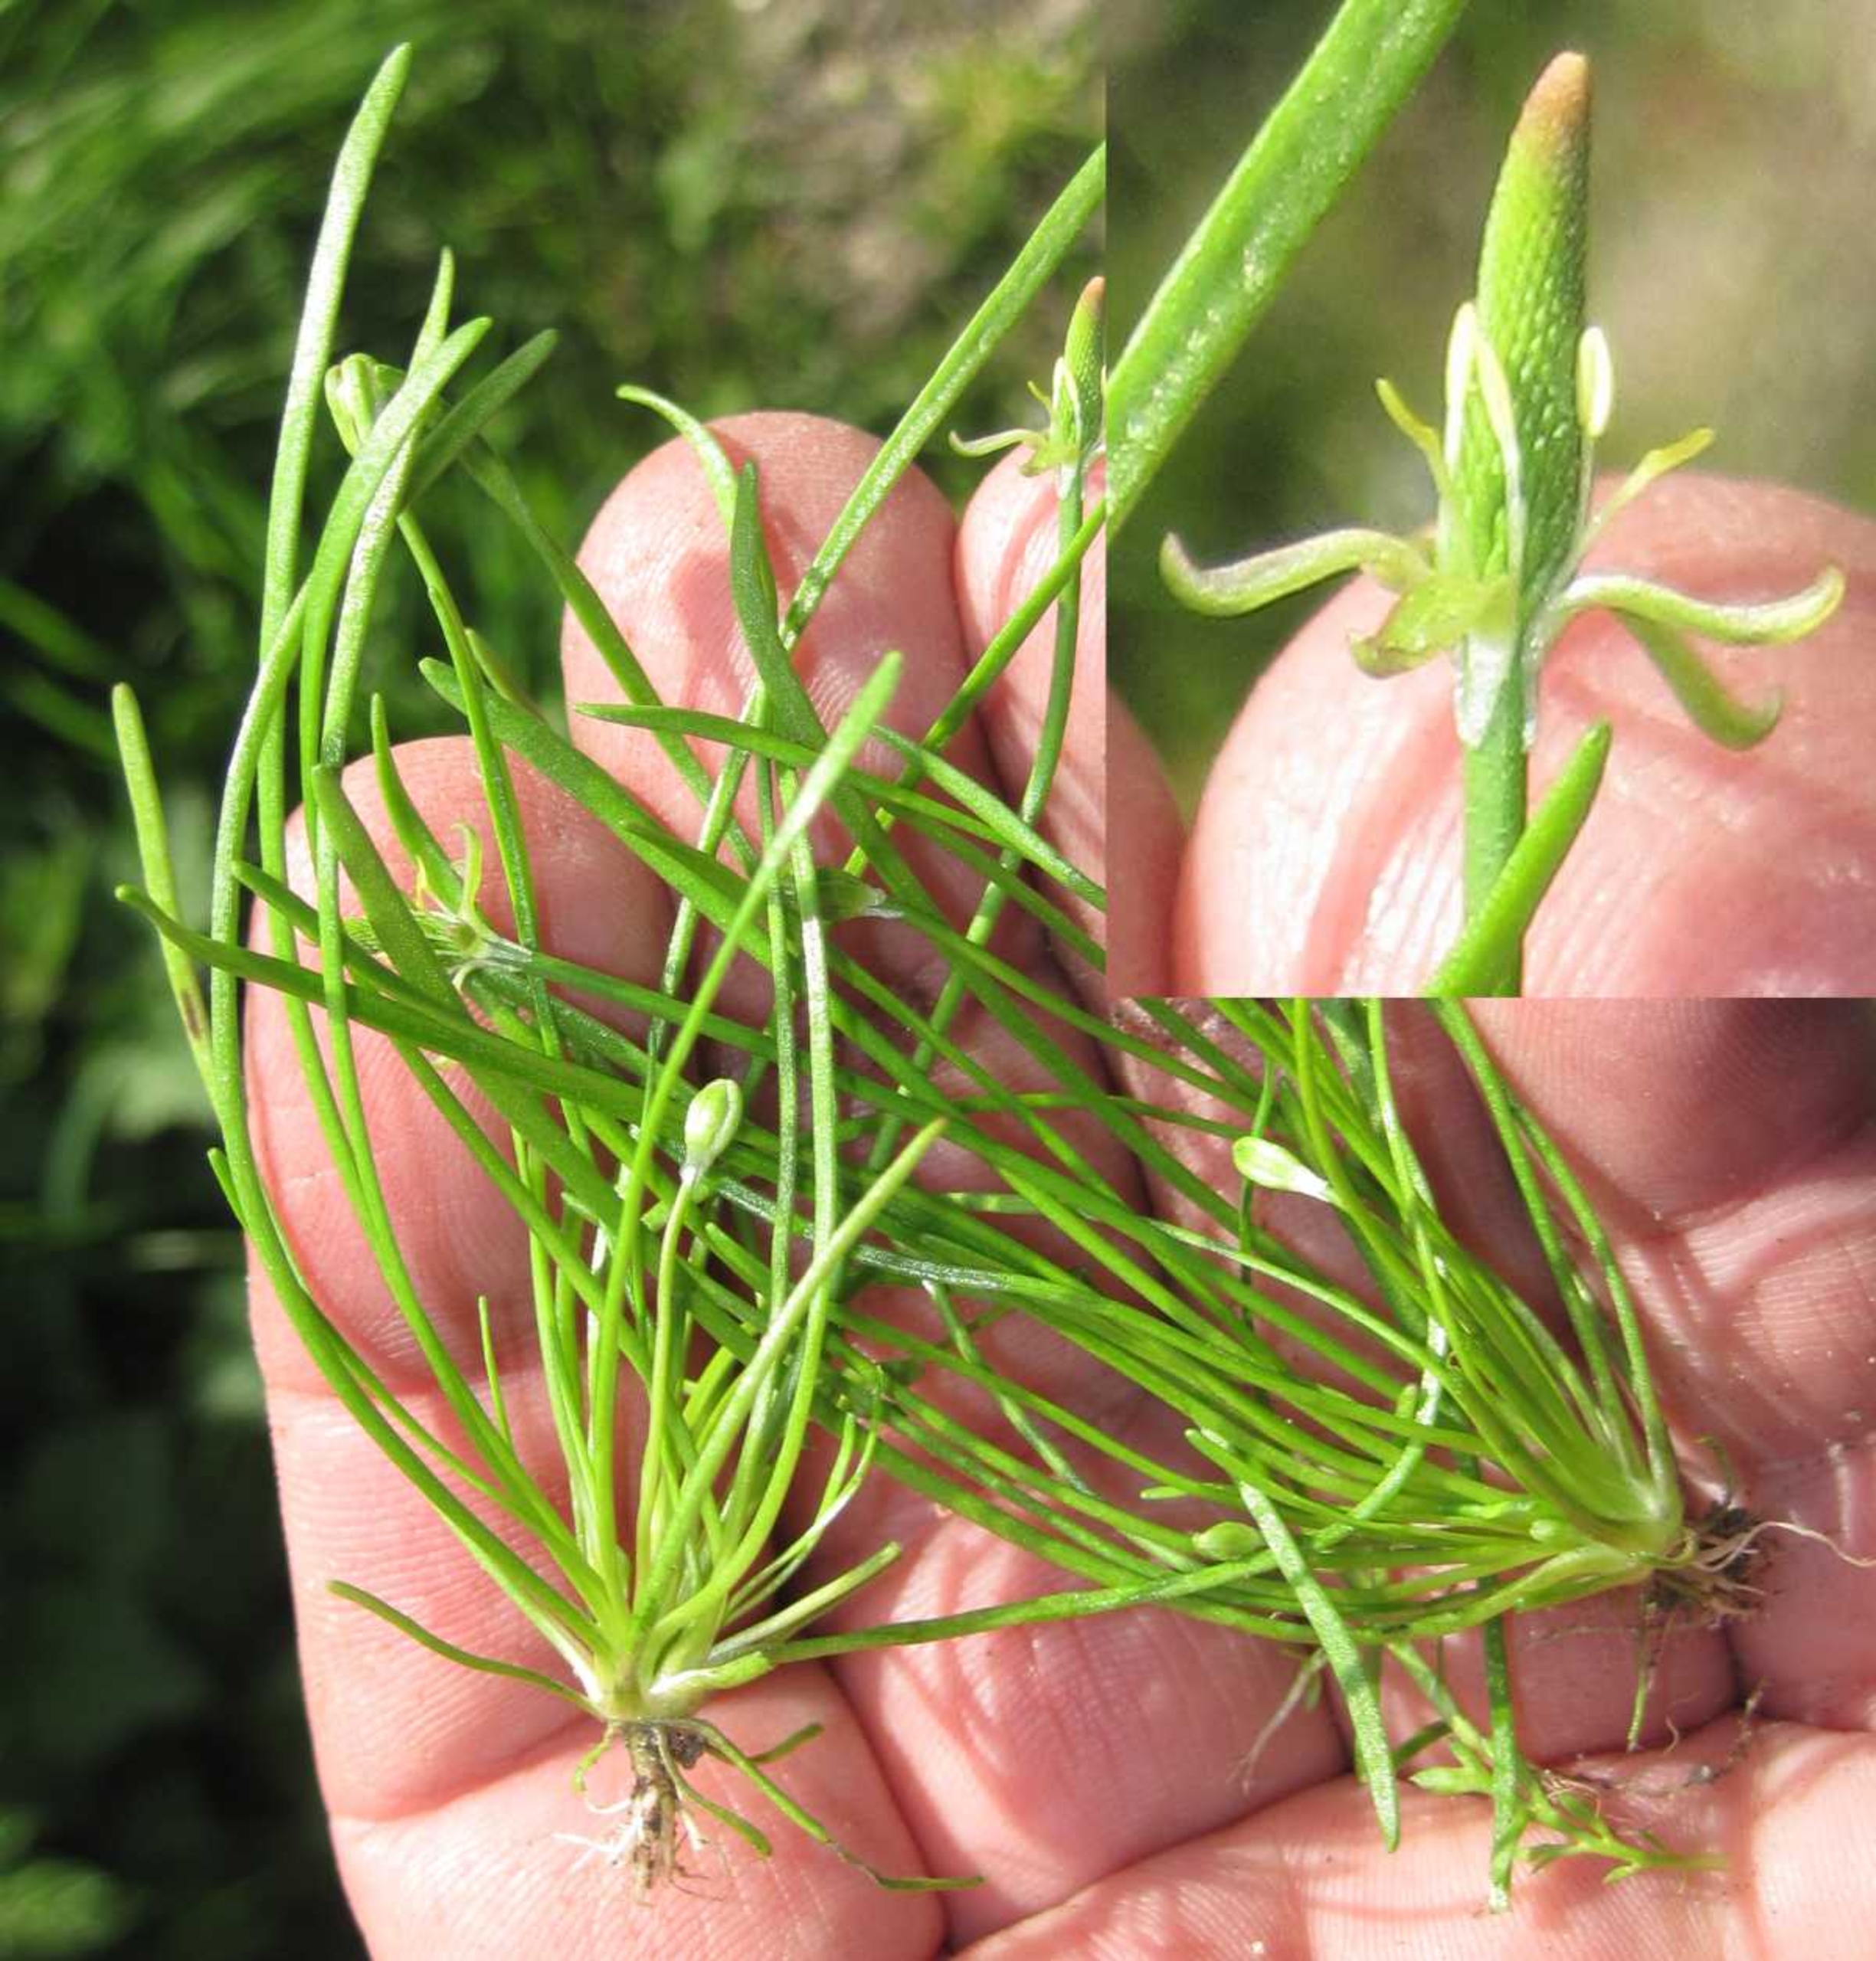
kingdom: Plantae
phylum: Tracheophyta
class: Magnoliopsida
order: Ranunculales
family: Ranunculaceae
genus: Myosurus
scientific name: Myosurus minimus
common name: Musehale
